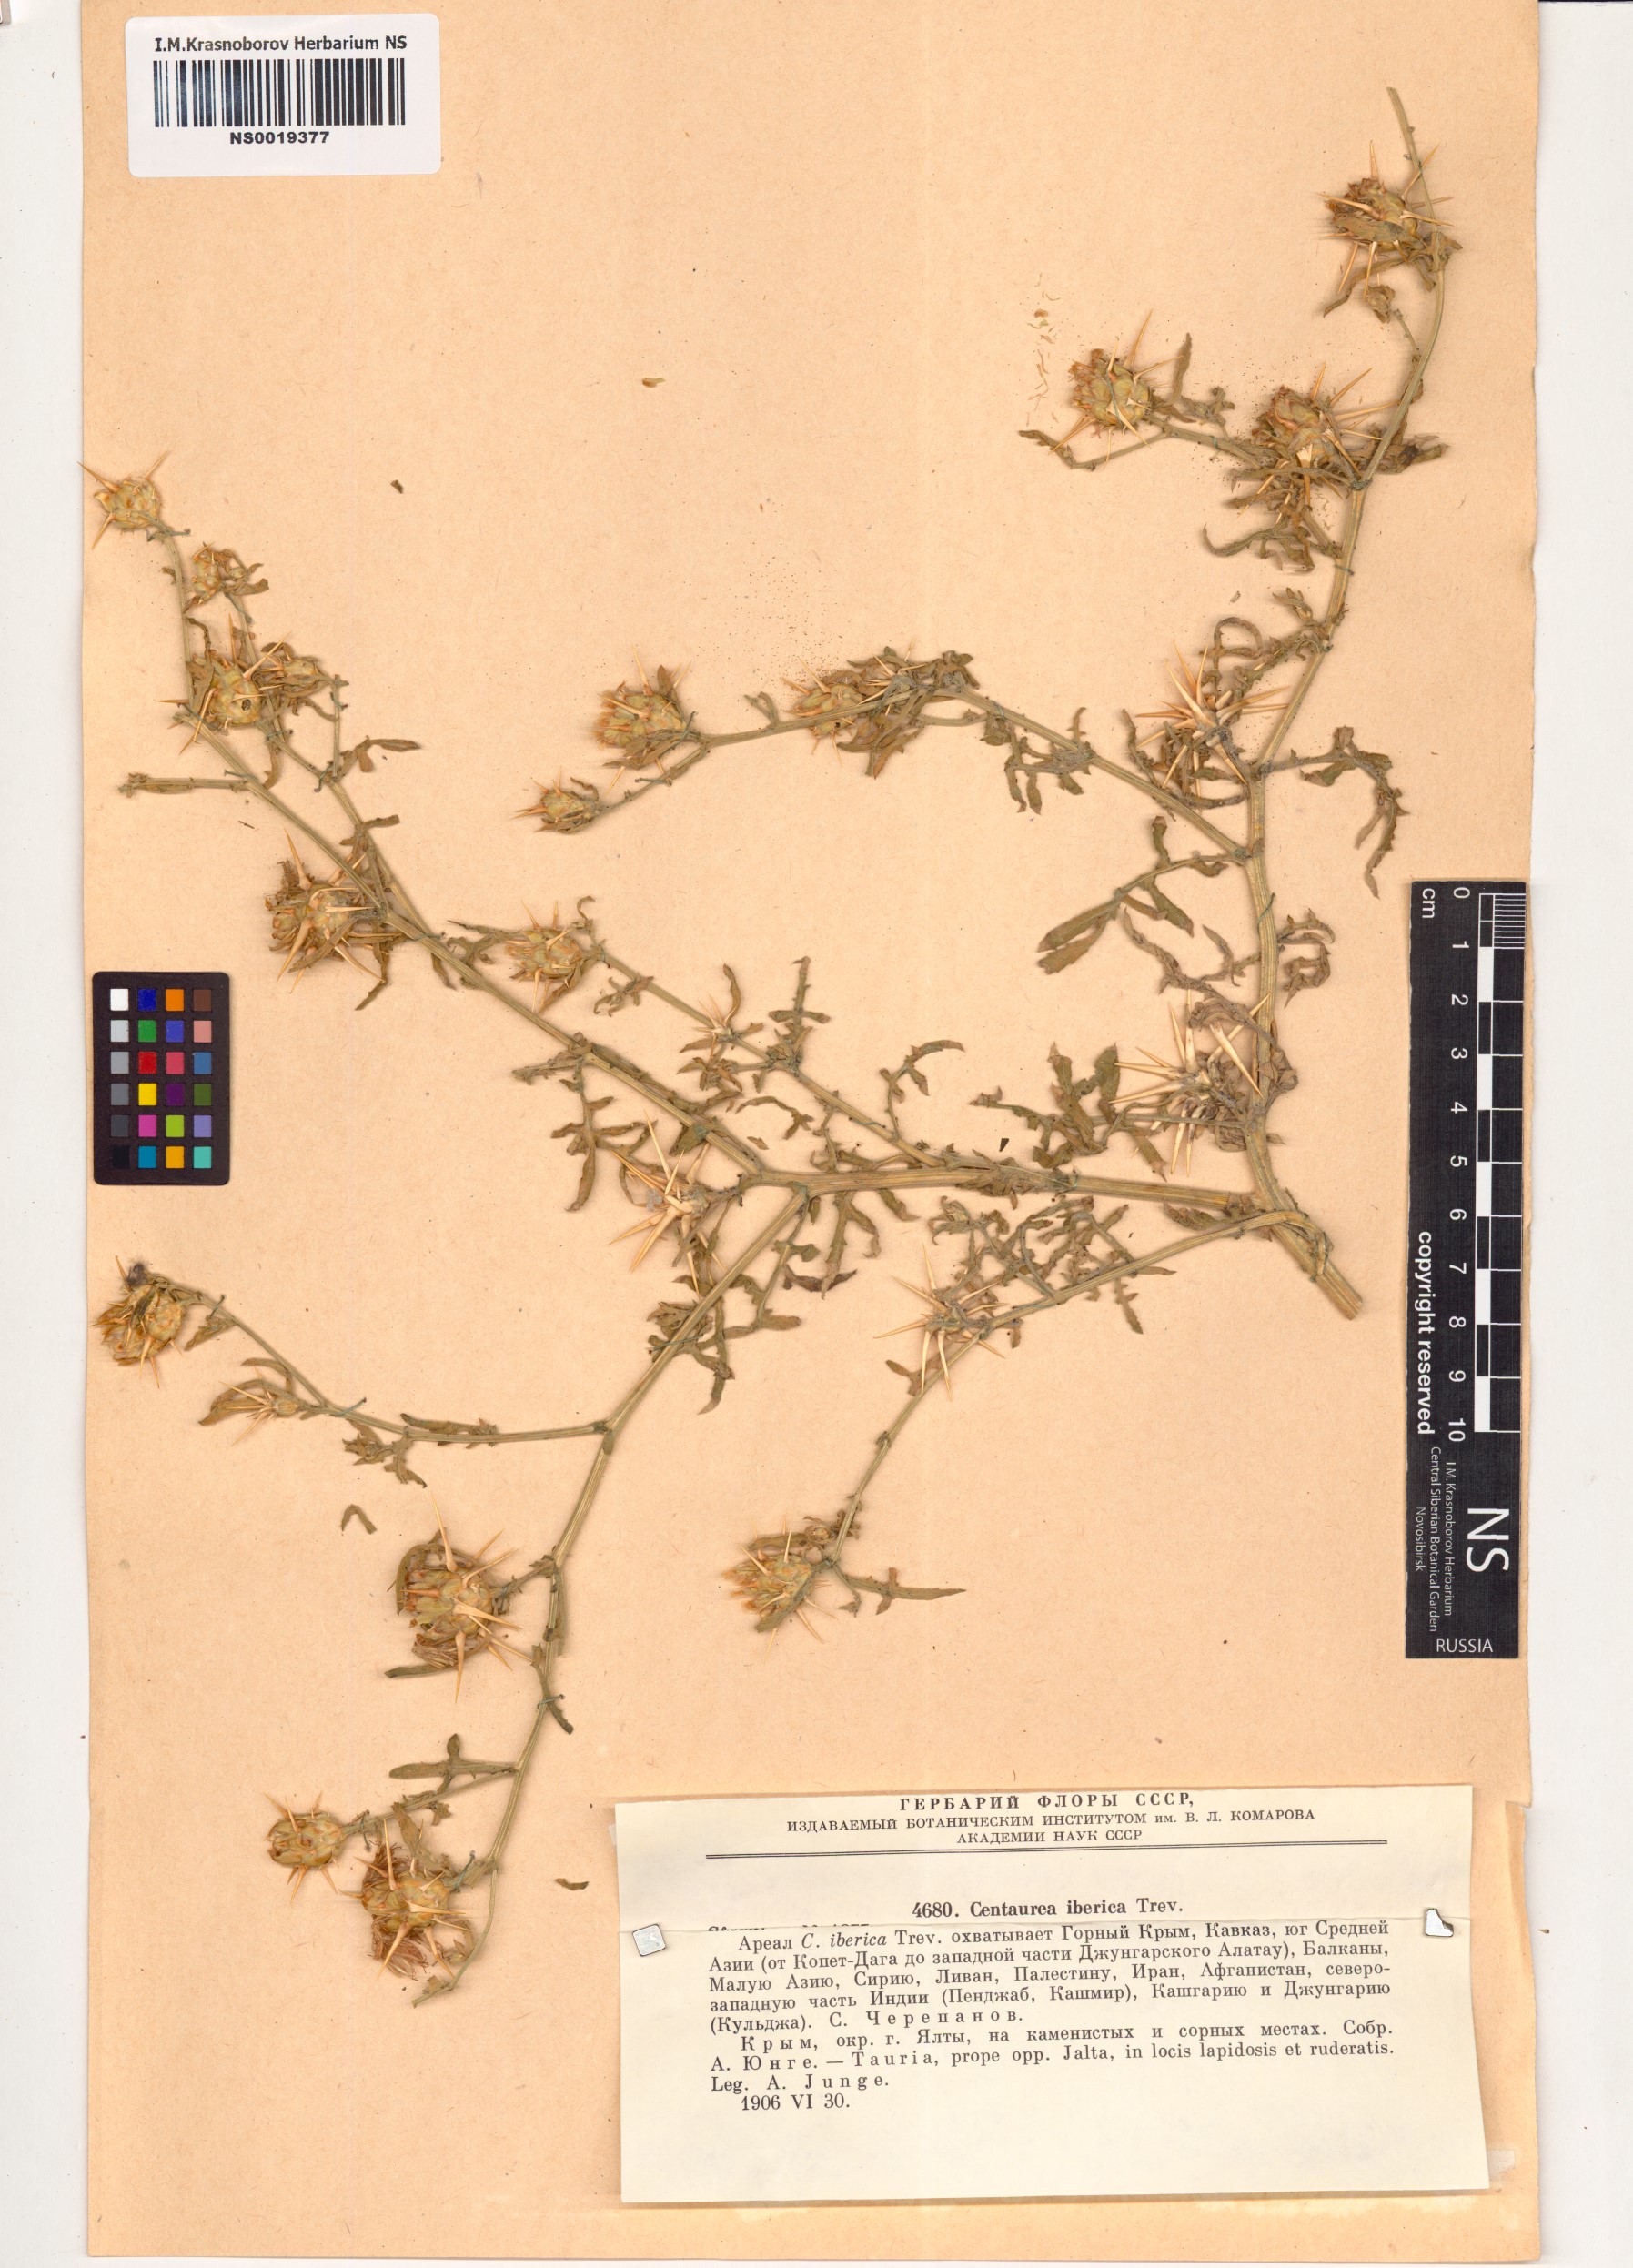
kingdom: Plantae
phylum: Tracheophyta
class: Magnoliopsida
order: Asterales
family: Asteraceae
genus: Centaurea
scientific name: Centaurea iberica
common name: Iberian knapweed
